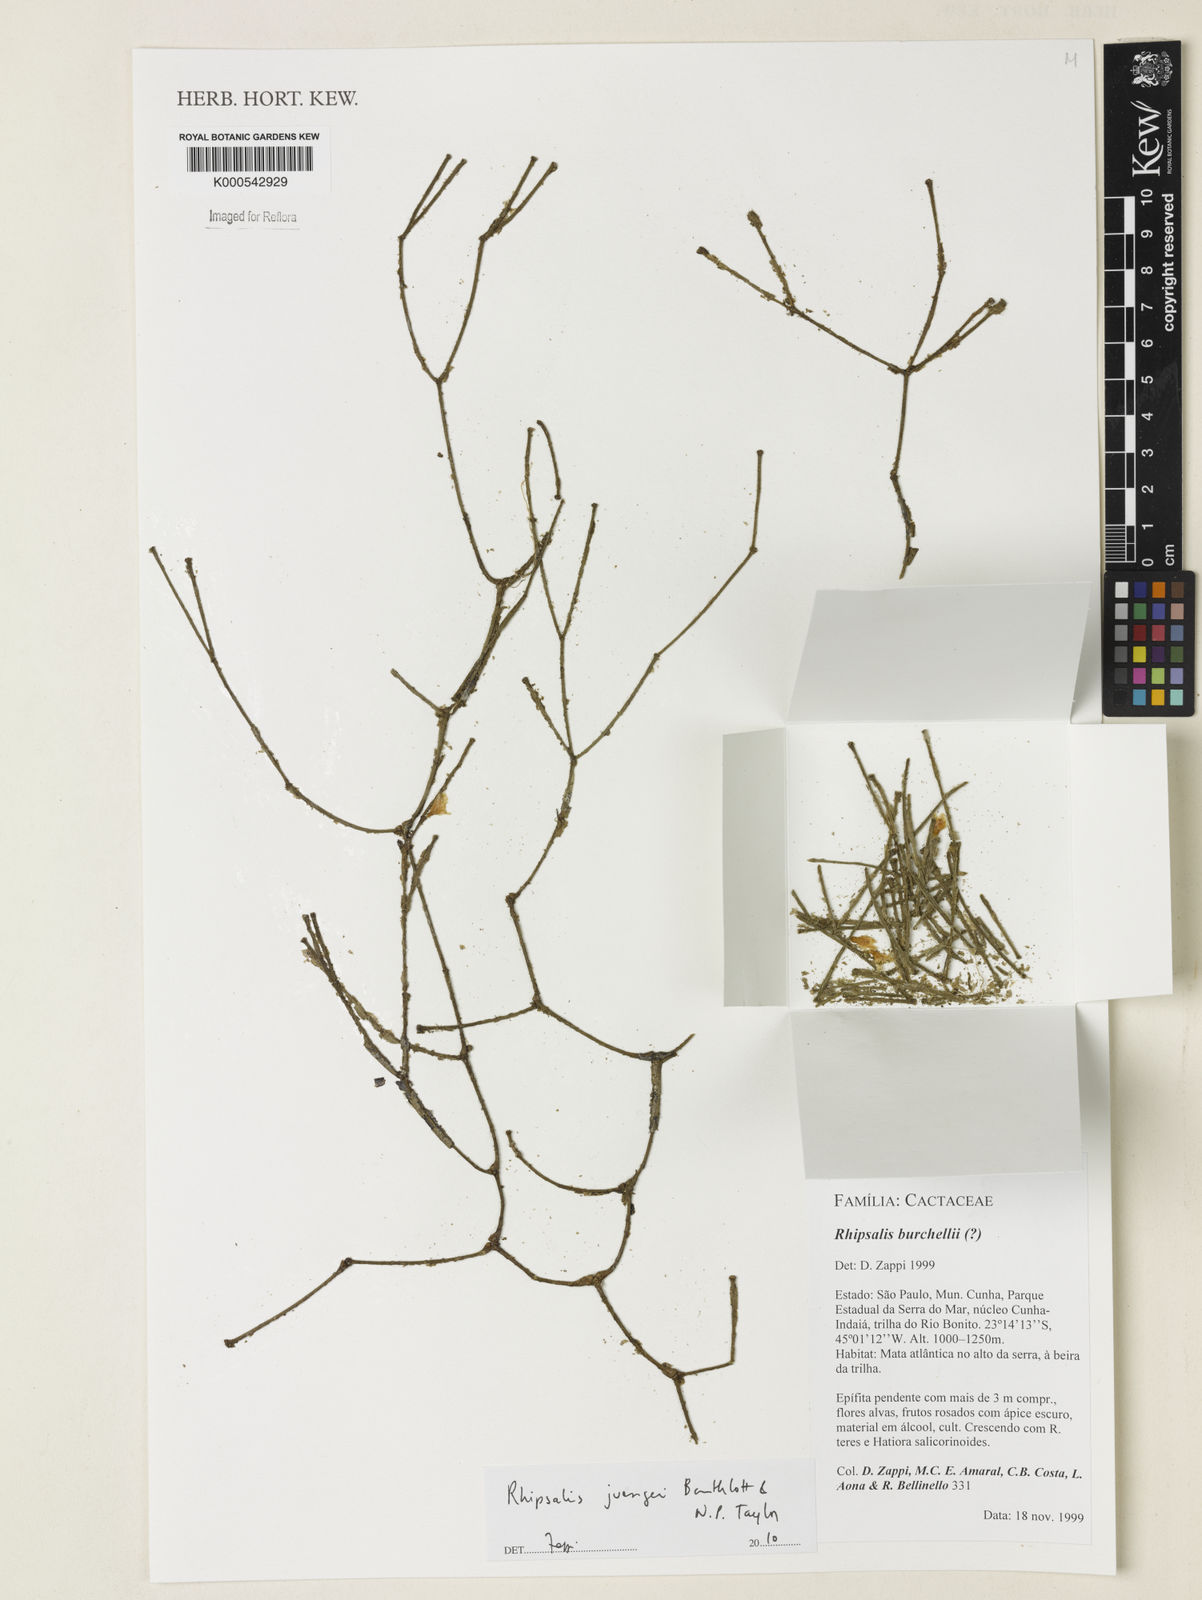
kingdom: Plantae
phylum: Tracheophyta
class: Magnoliopsida
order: Caryophyllales
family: Cactaceae
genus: Rhipsalis
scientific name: Rhipsalis juengeri
